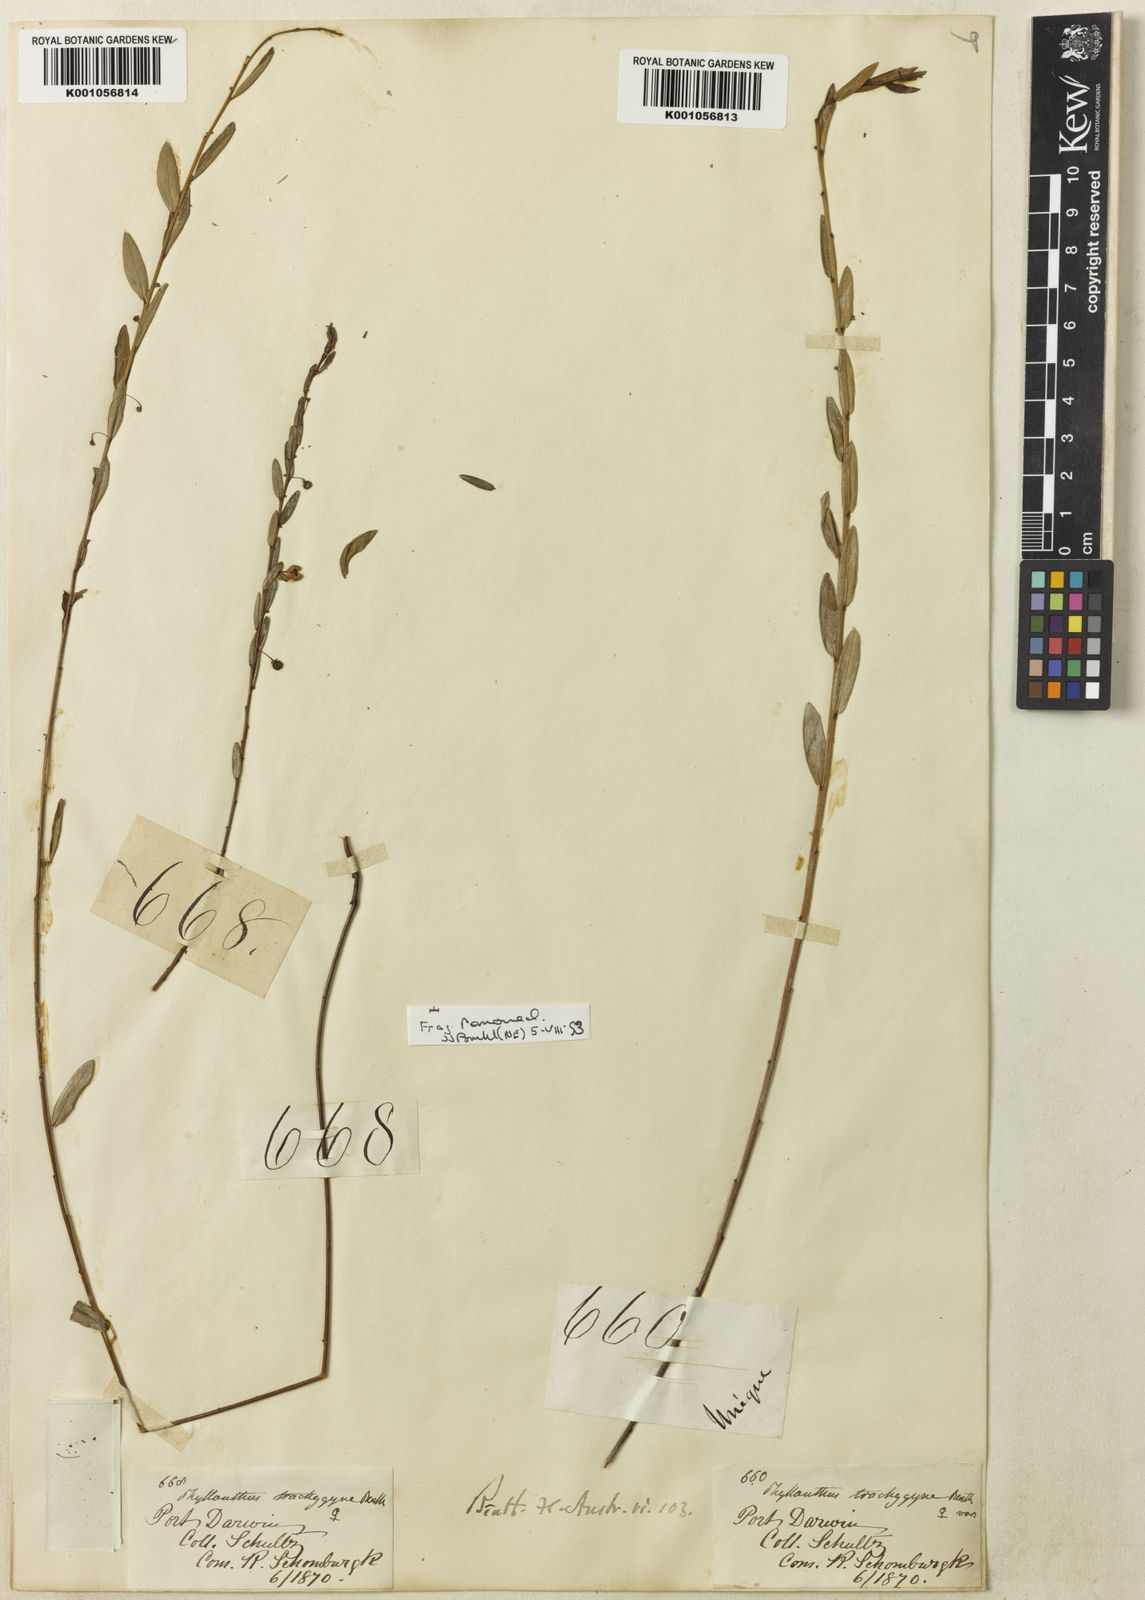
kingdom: Plantae
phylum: Tracheophyta
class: Magnoliopsida
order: Malpighiales
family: Phyllanthaceae
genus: Phyllanthus
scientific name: Phyllanthus virgatus
